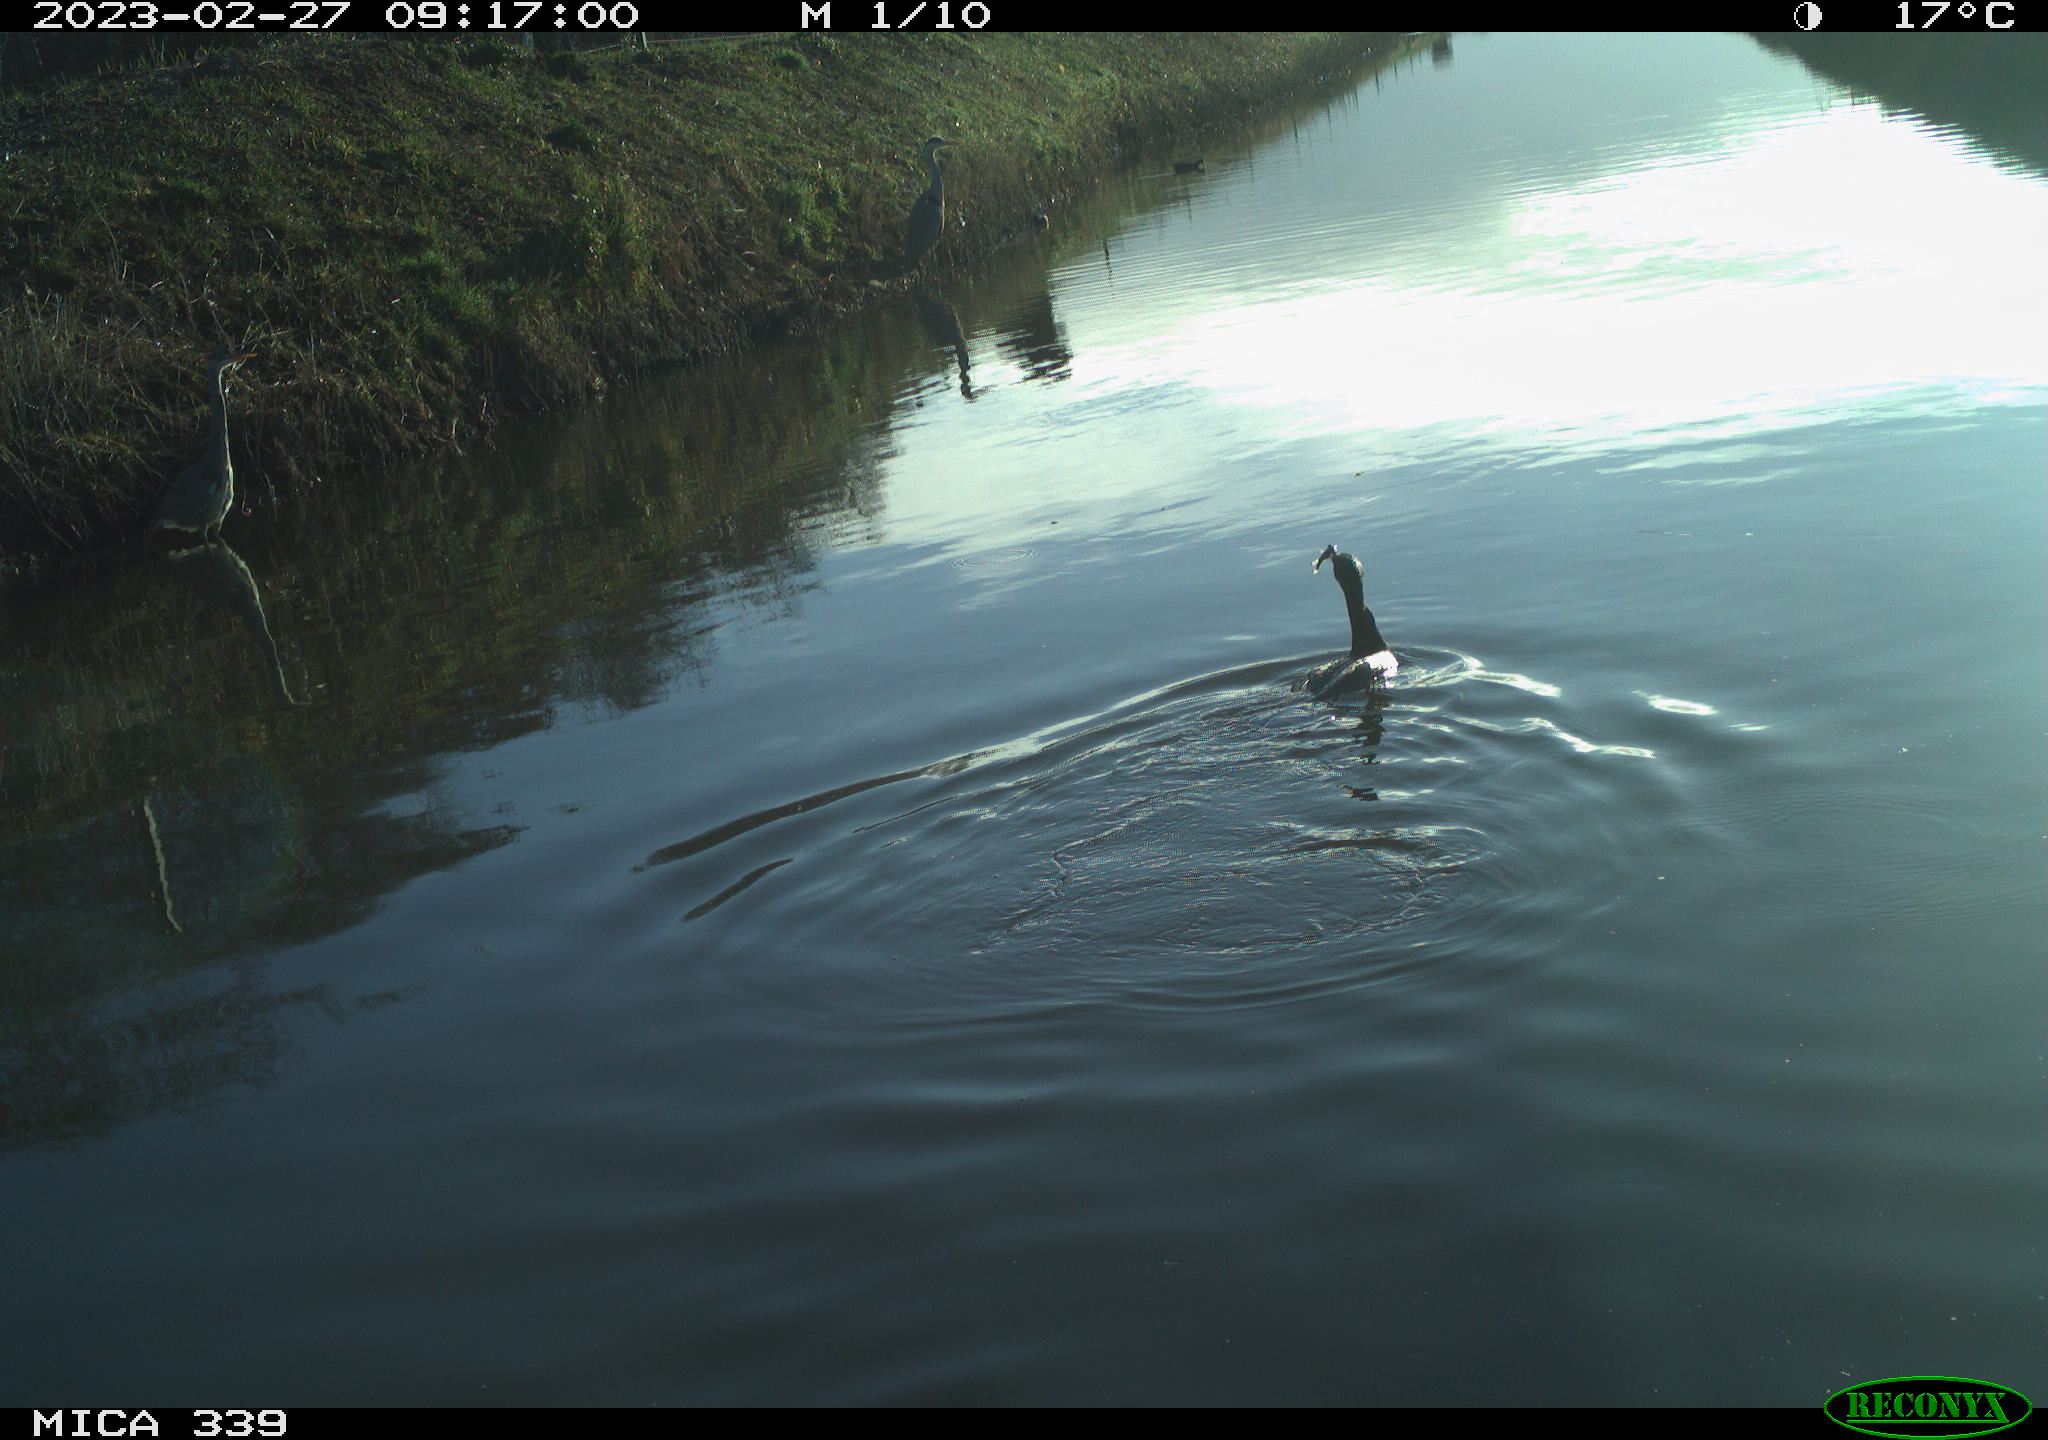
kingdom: Animalia
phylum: Chordata
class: Aves
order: Pelecaniformes
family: Ardeidae
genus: Ardea
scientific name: Ardea cinerea
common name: Grey heron
